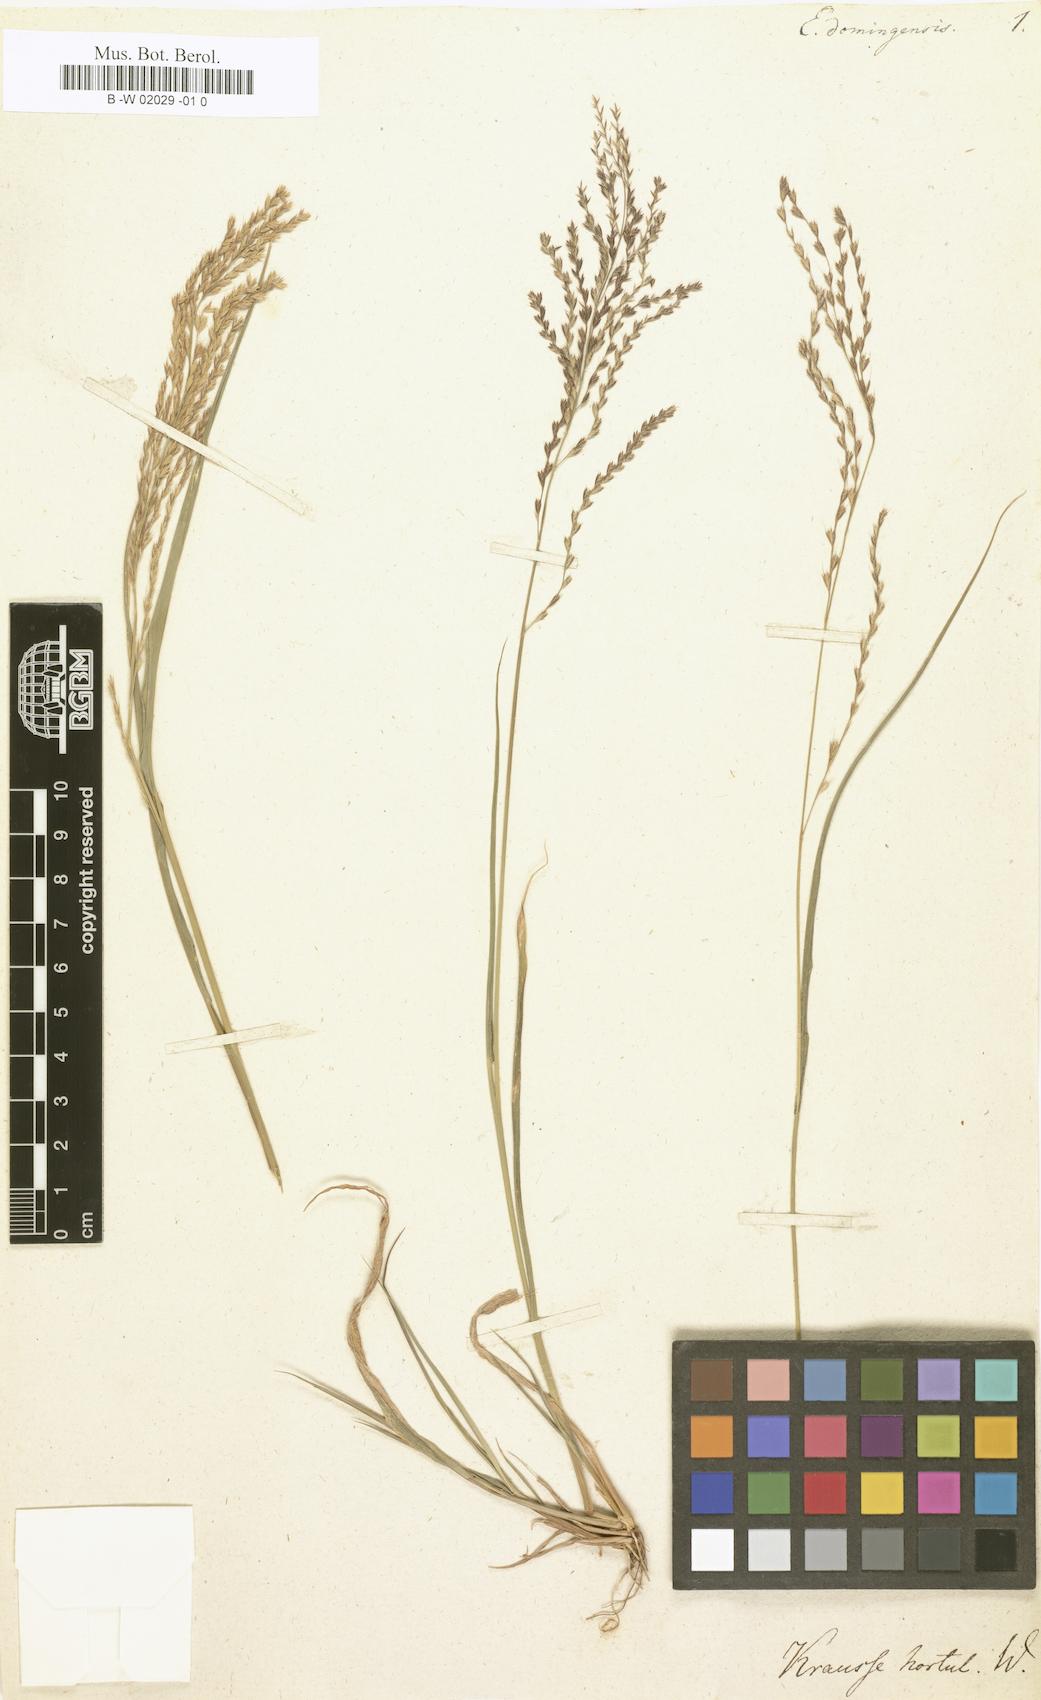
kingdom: Plantae
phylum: Tracheophyta
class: Liliopsida
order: Poales
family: Poaceae
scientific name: Poaceae
